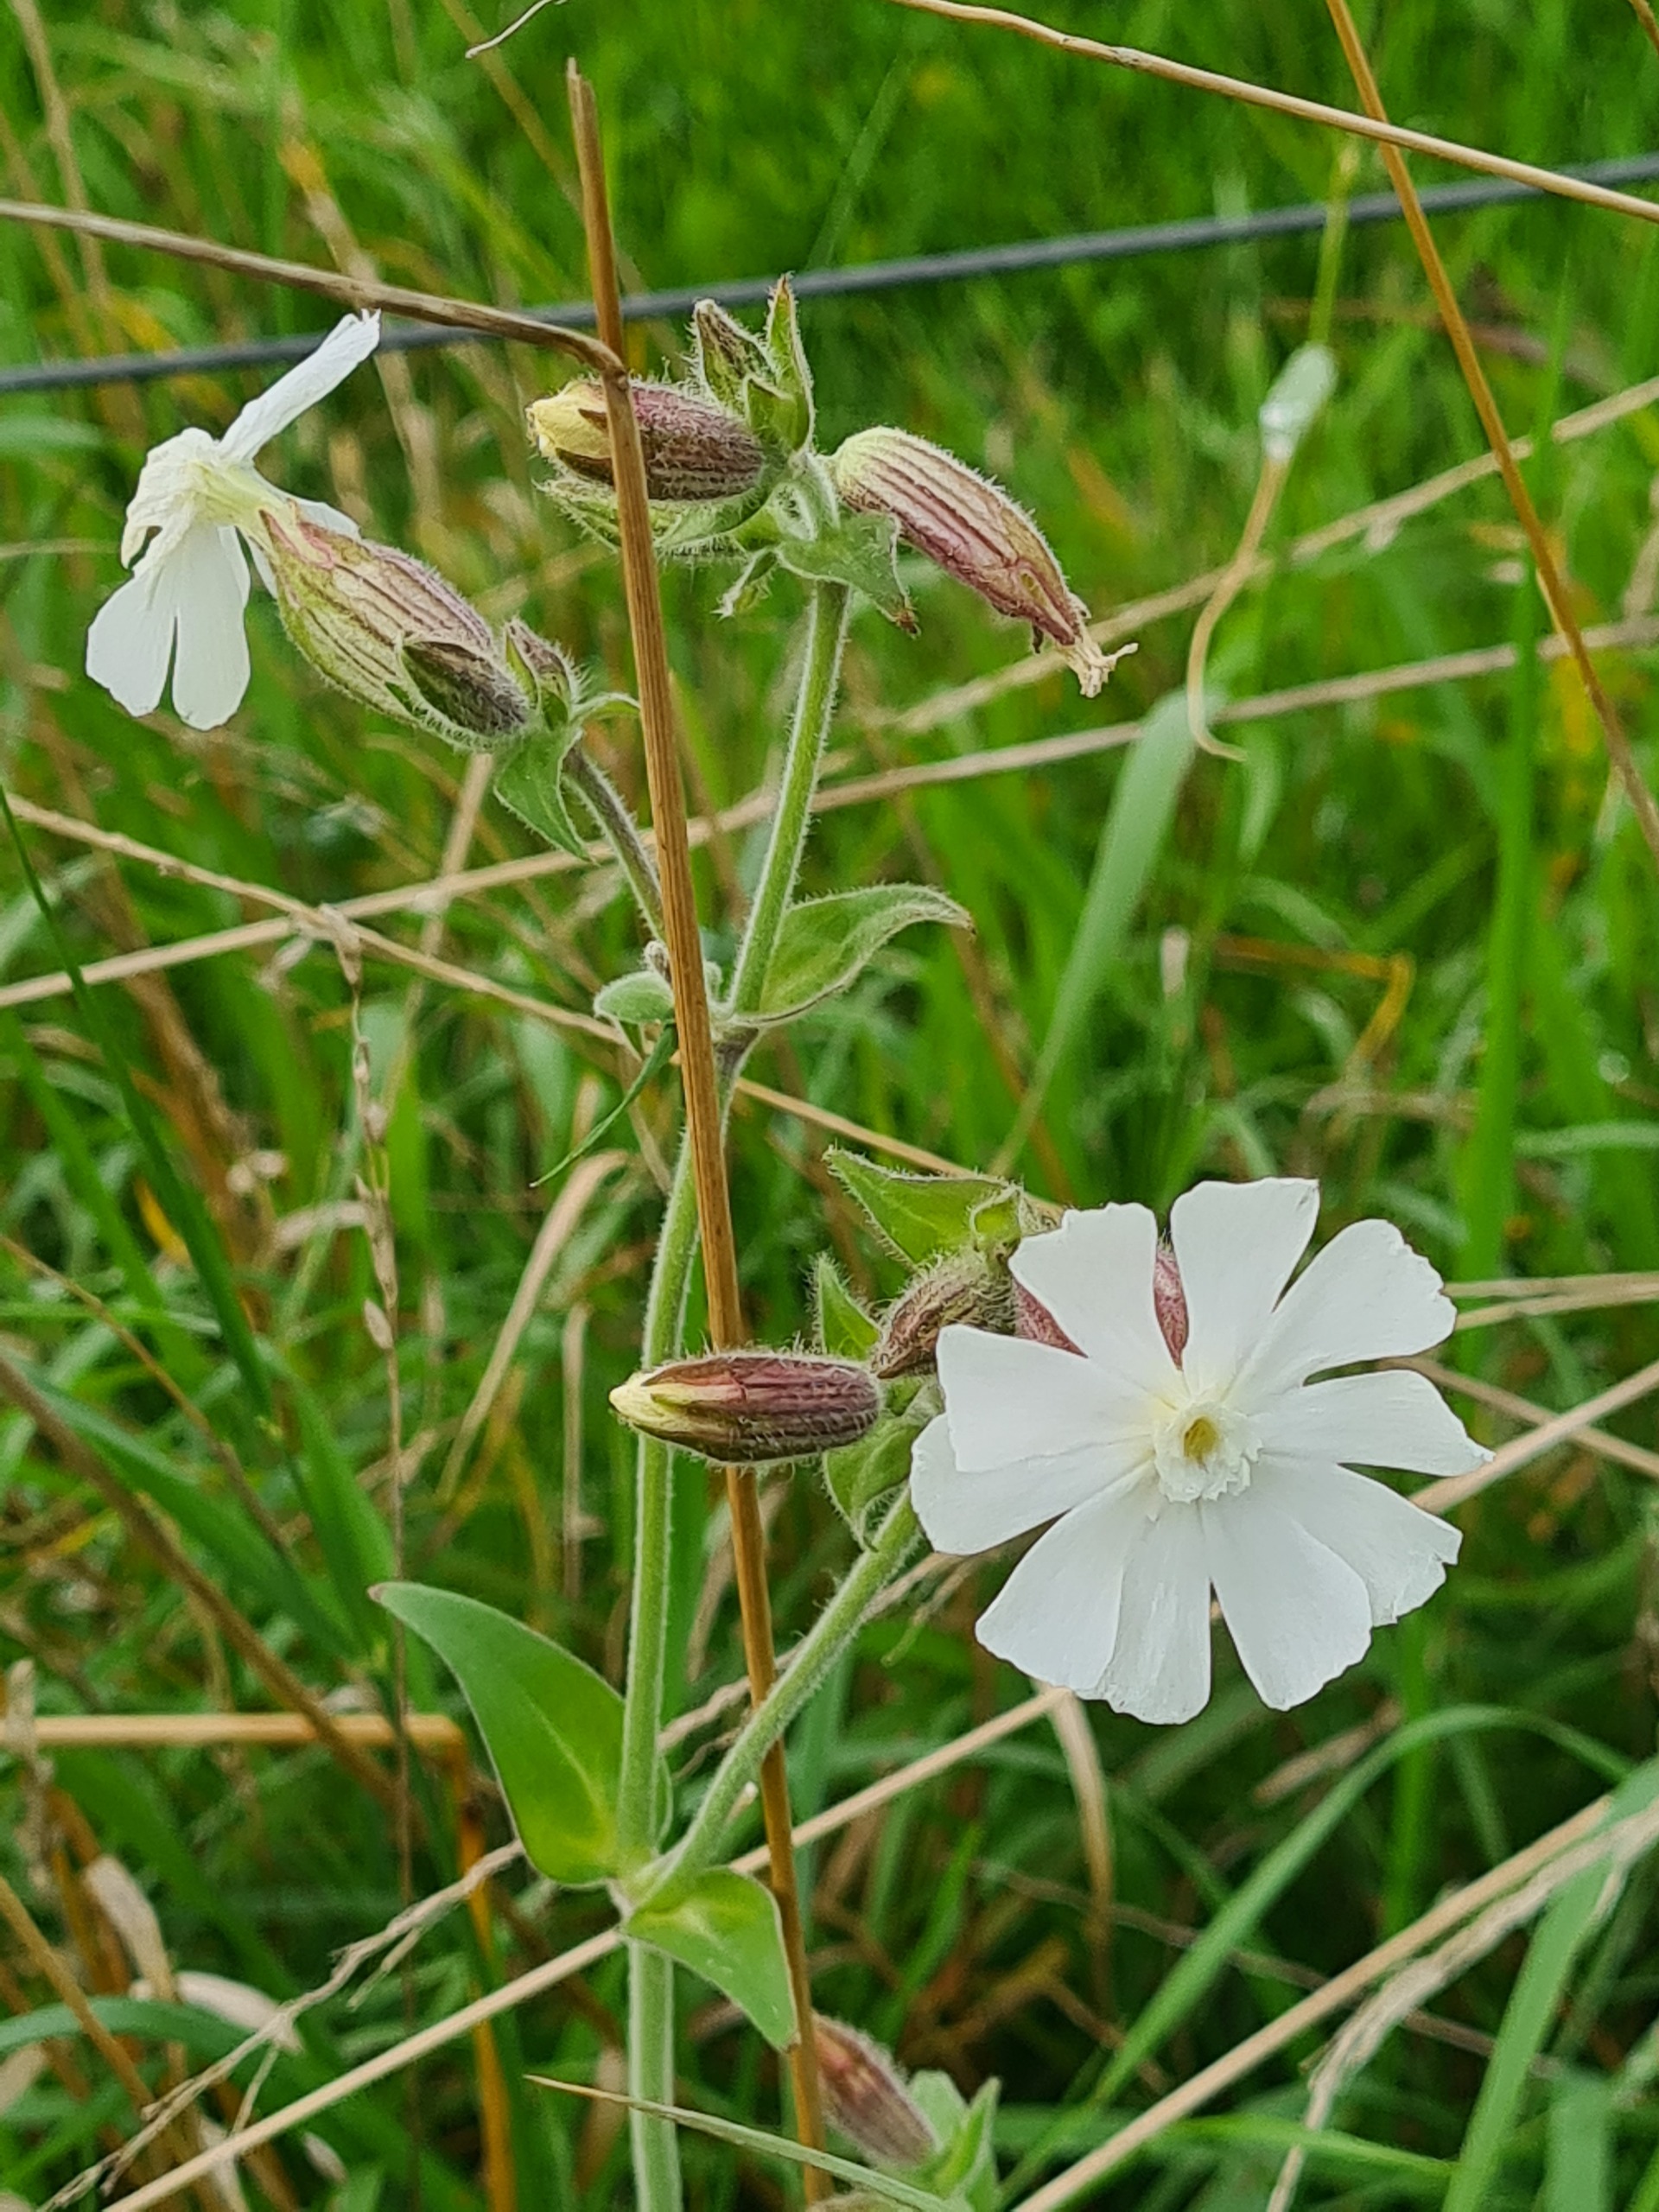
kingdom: Plantae
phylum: Tracheophyta
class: Magnoliopsida
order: Caryophyllales
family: Caryophyllaceae
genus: Silene
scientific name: Silene latifolia
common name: Aftenpragtstjerne
